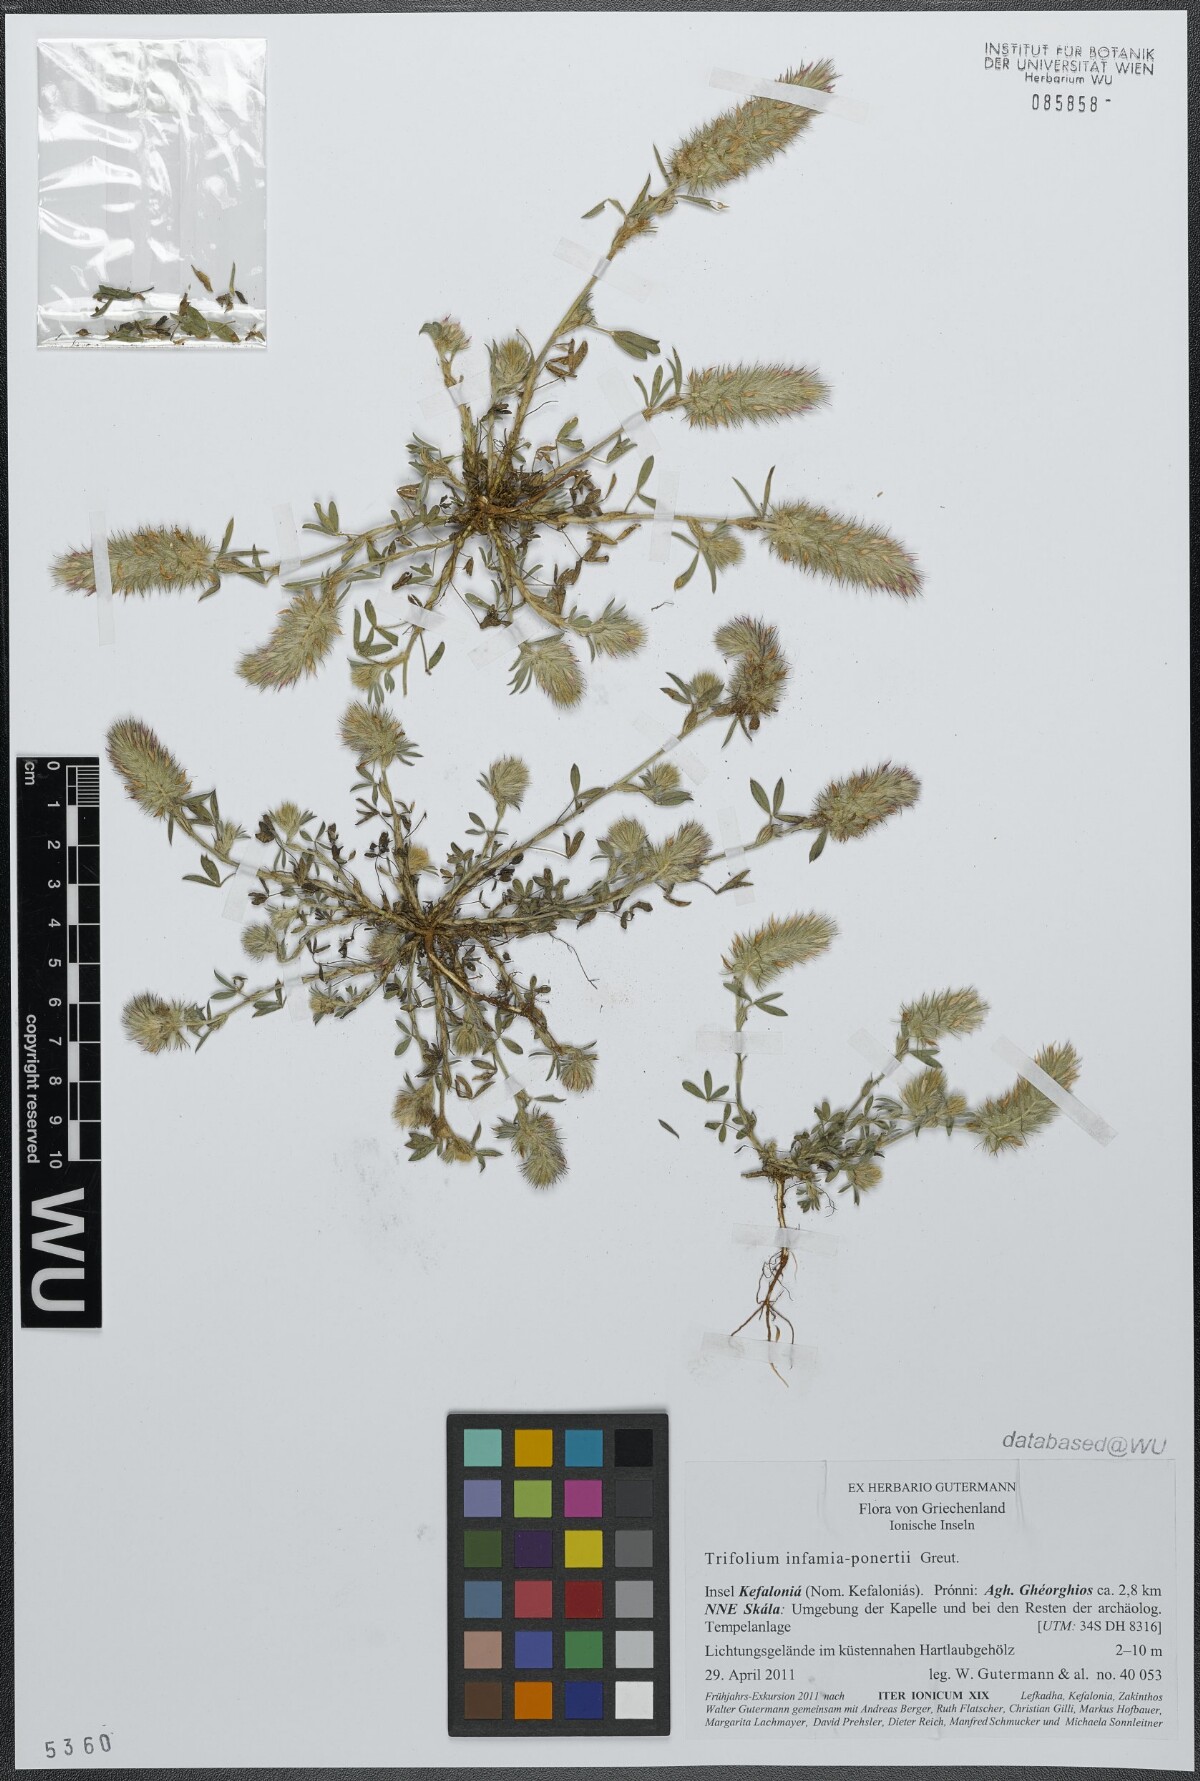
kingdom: Plantae
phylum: Tracheophyta
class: Magnoliopsida
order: Fabales
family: Fabaceae
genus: Trifolium
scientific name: Trifolium infamia-ponertii
